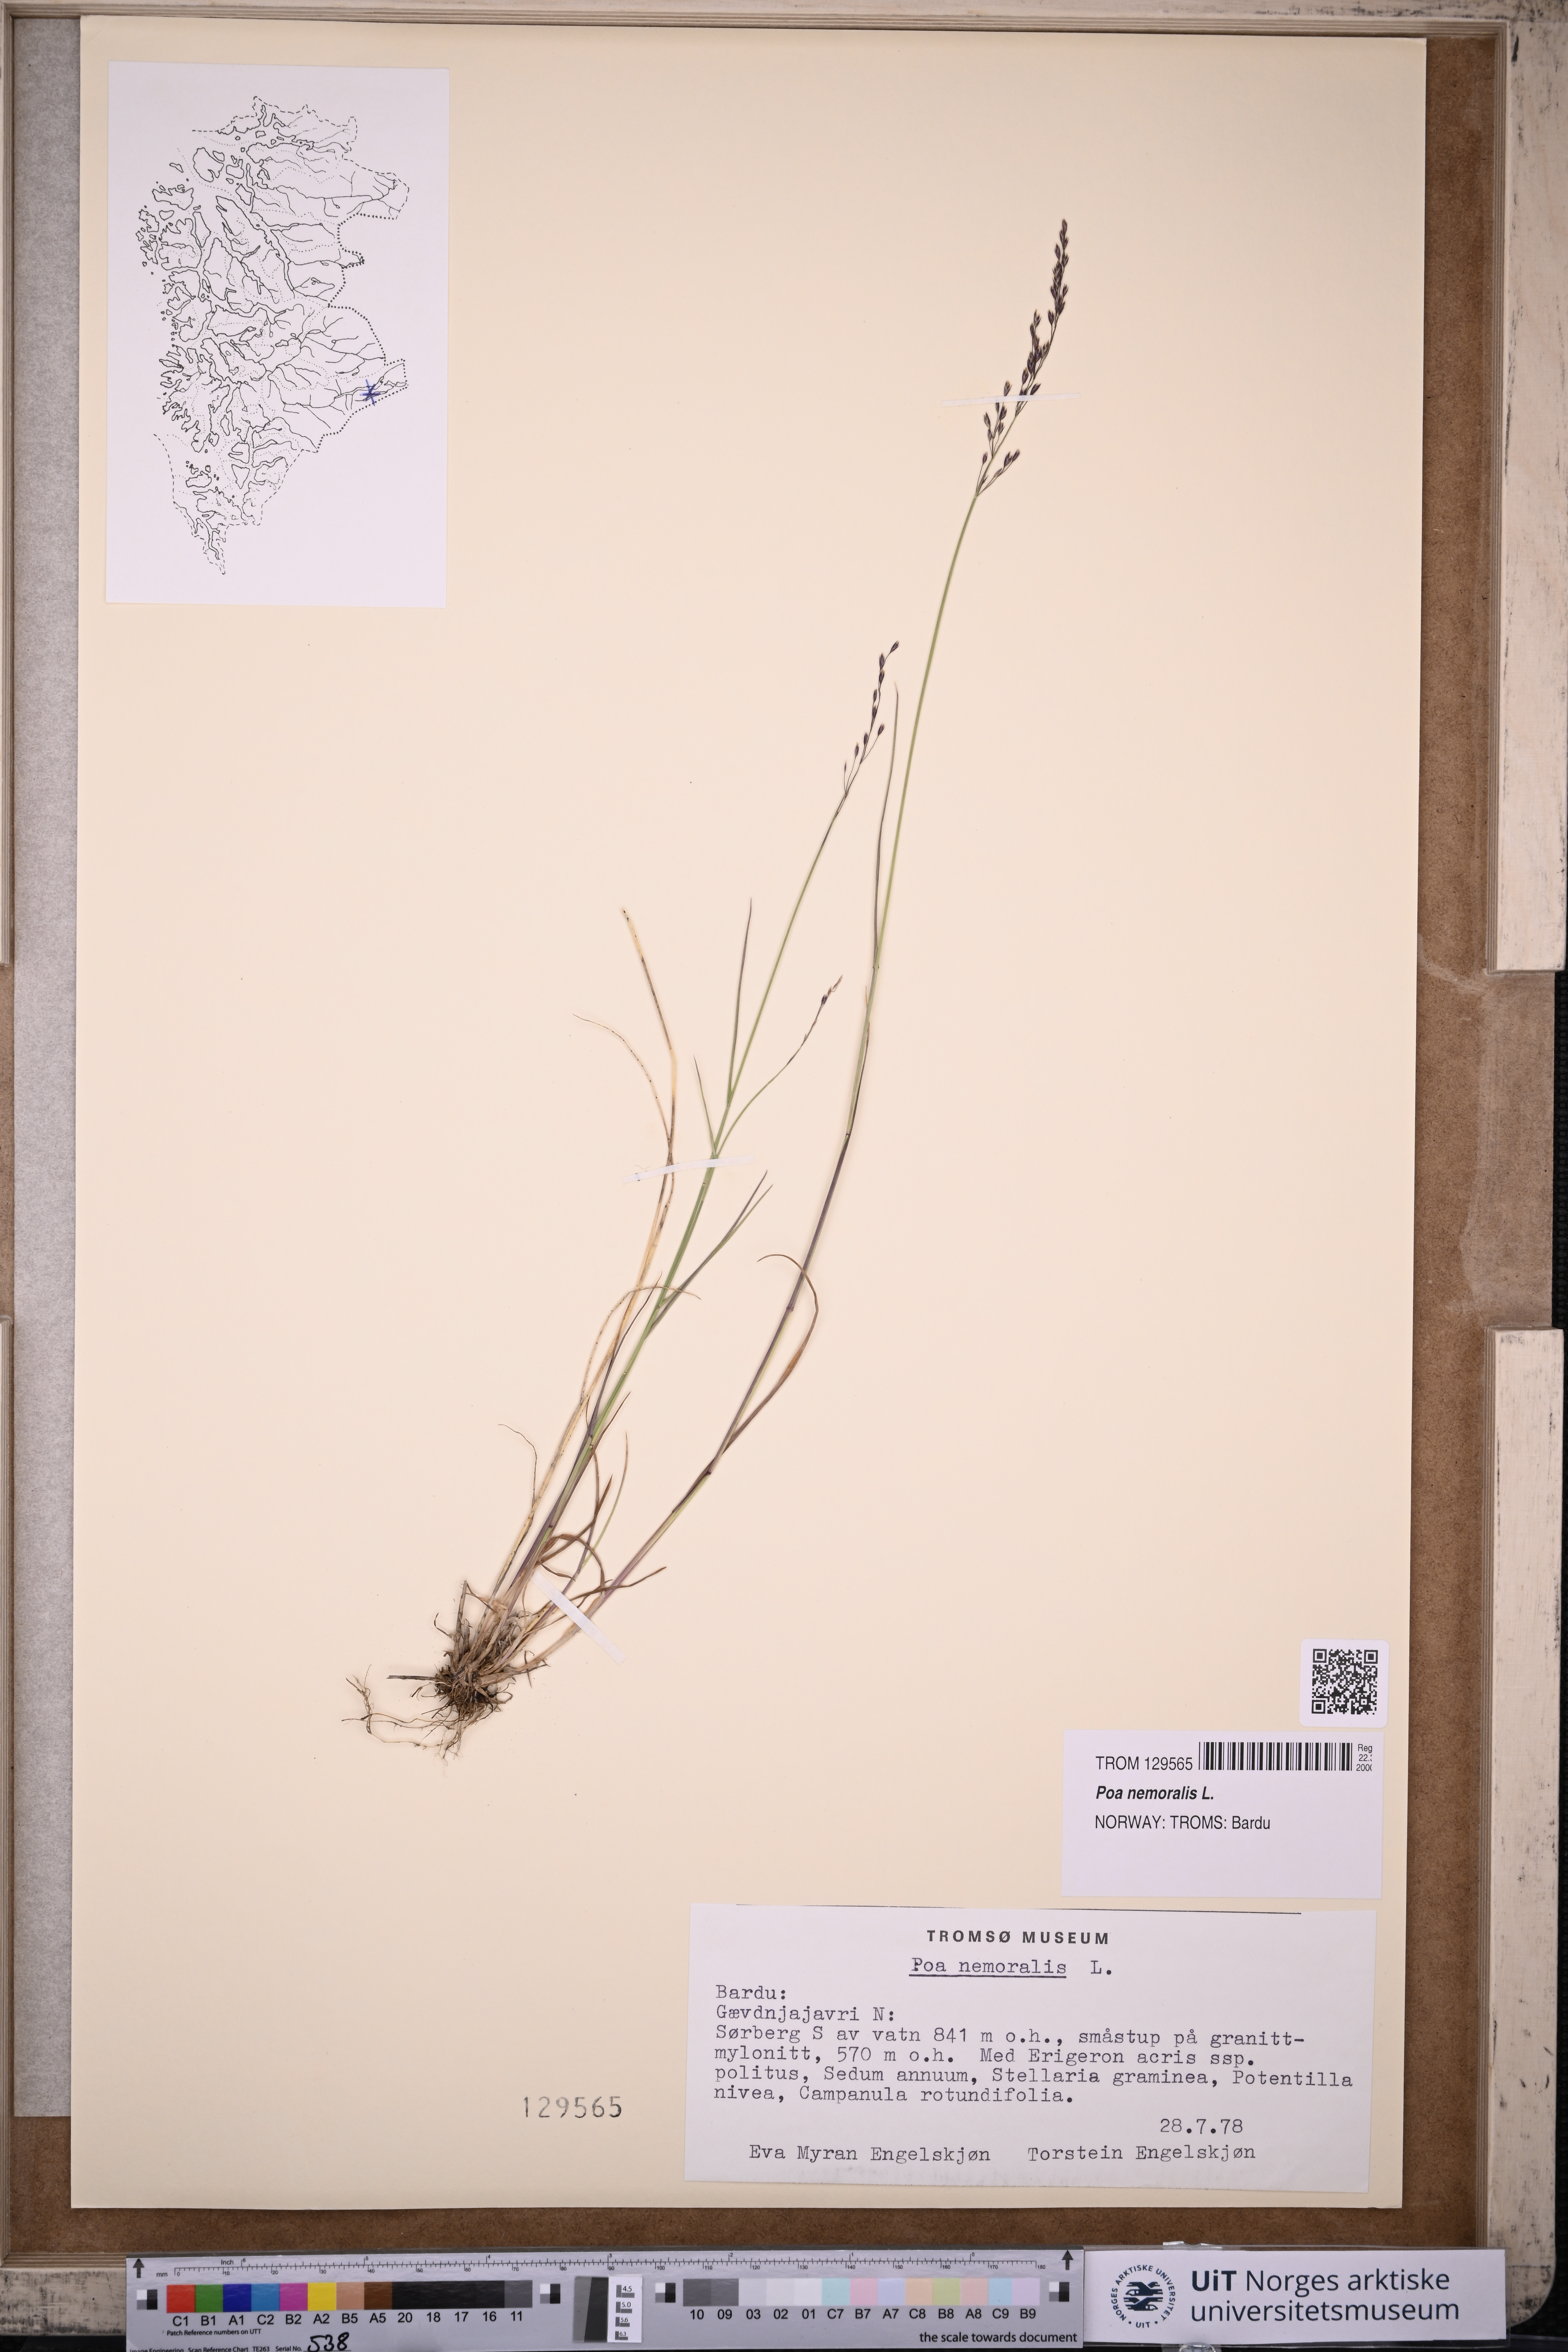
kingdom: Plantae
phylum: Tracheophyta
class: Liliopsida
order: Poales
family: Poaceae
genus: Poa
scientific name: Poa nemoralis
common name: Wood bluegrass
